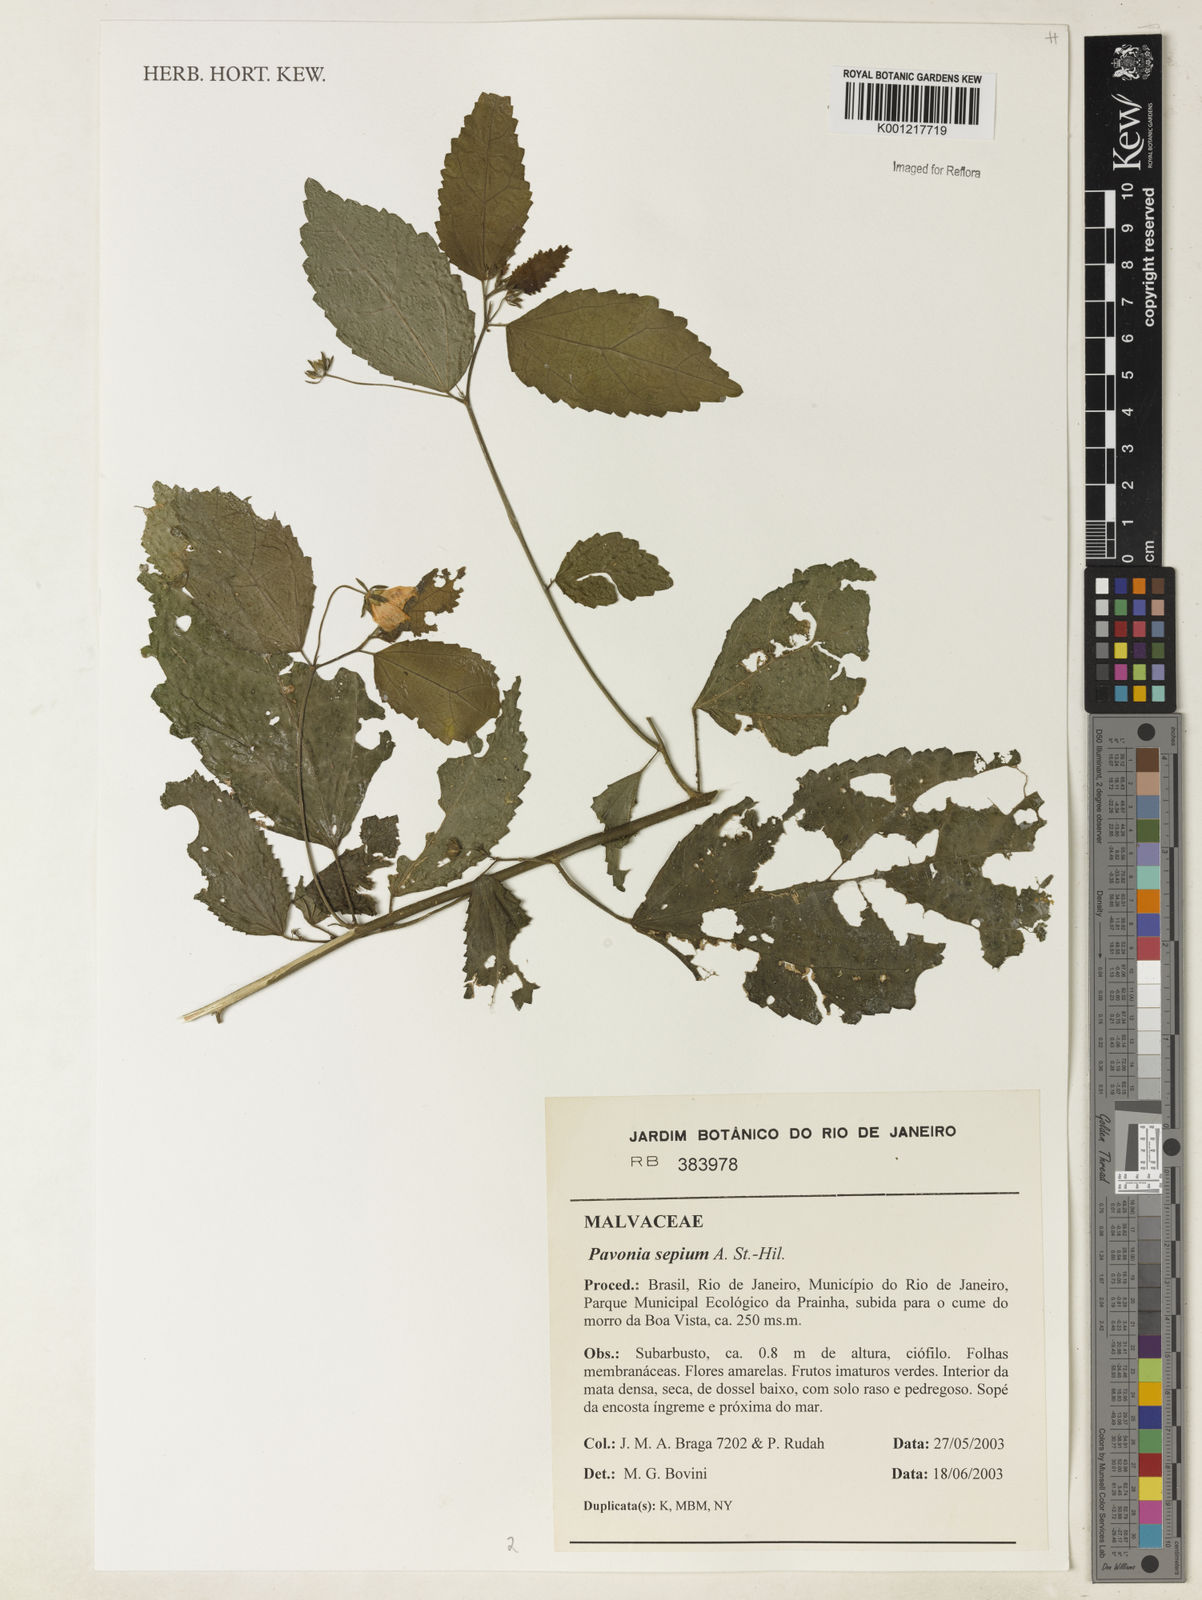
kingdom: Plantae
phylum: Tracheophyta
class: Magnoliopsida
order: Malvales
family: Malvaceae
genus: Pavonia
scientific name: Pavonia sepium
